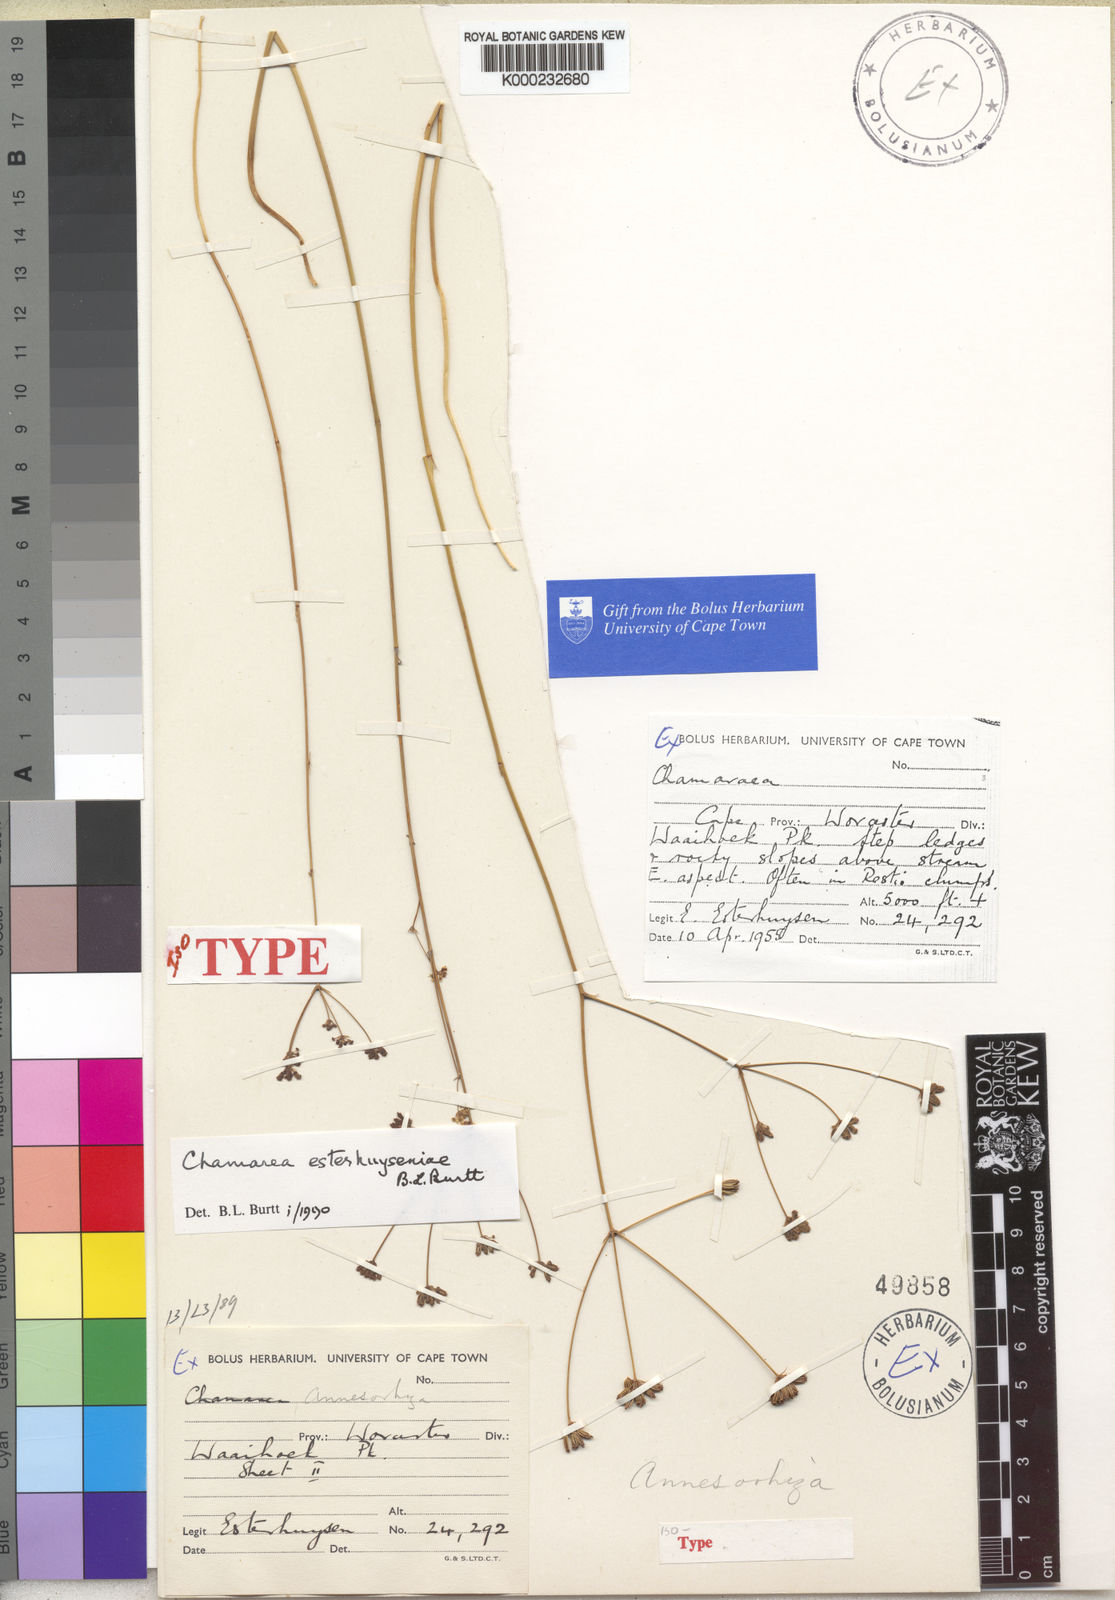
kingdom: Plantae
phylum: Tracheophyta
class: Magnoliopsida
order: Apiales
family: Apiaceae
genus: Chamarea
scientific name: Chamarea esterhuyseniae
